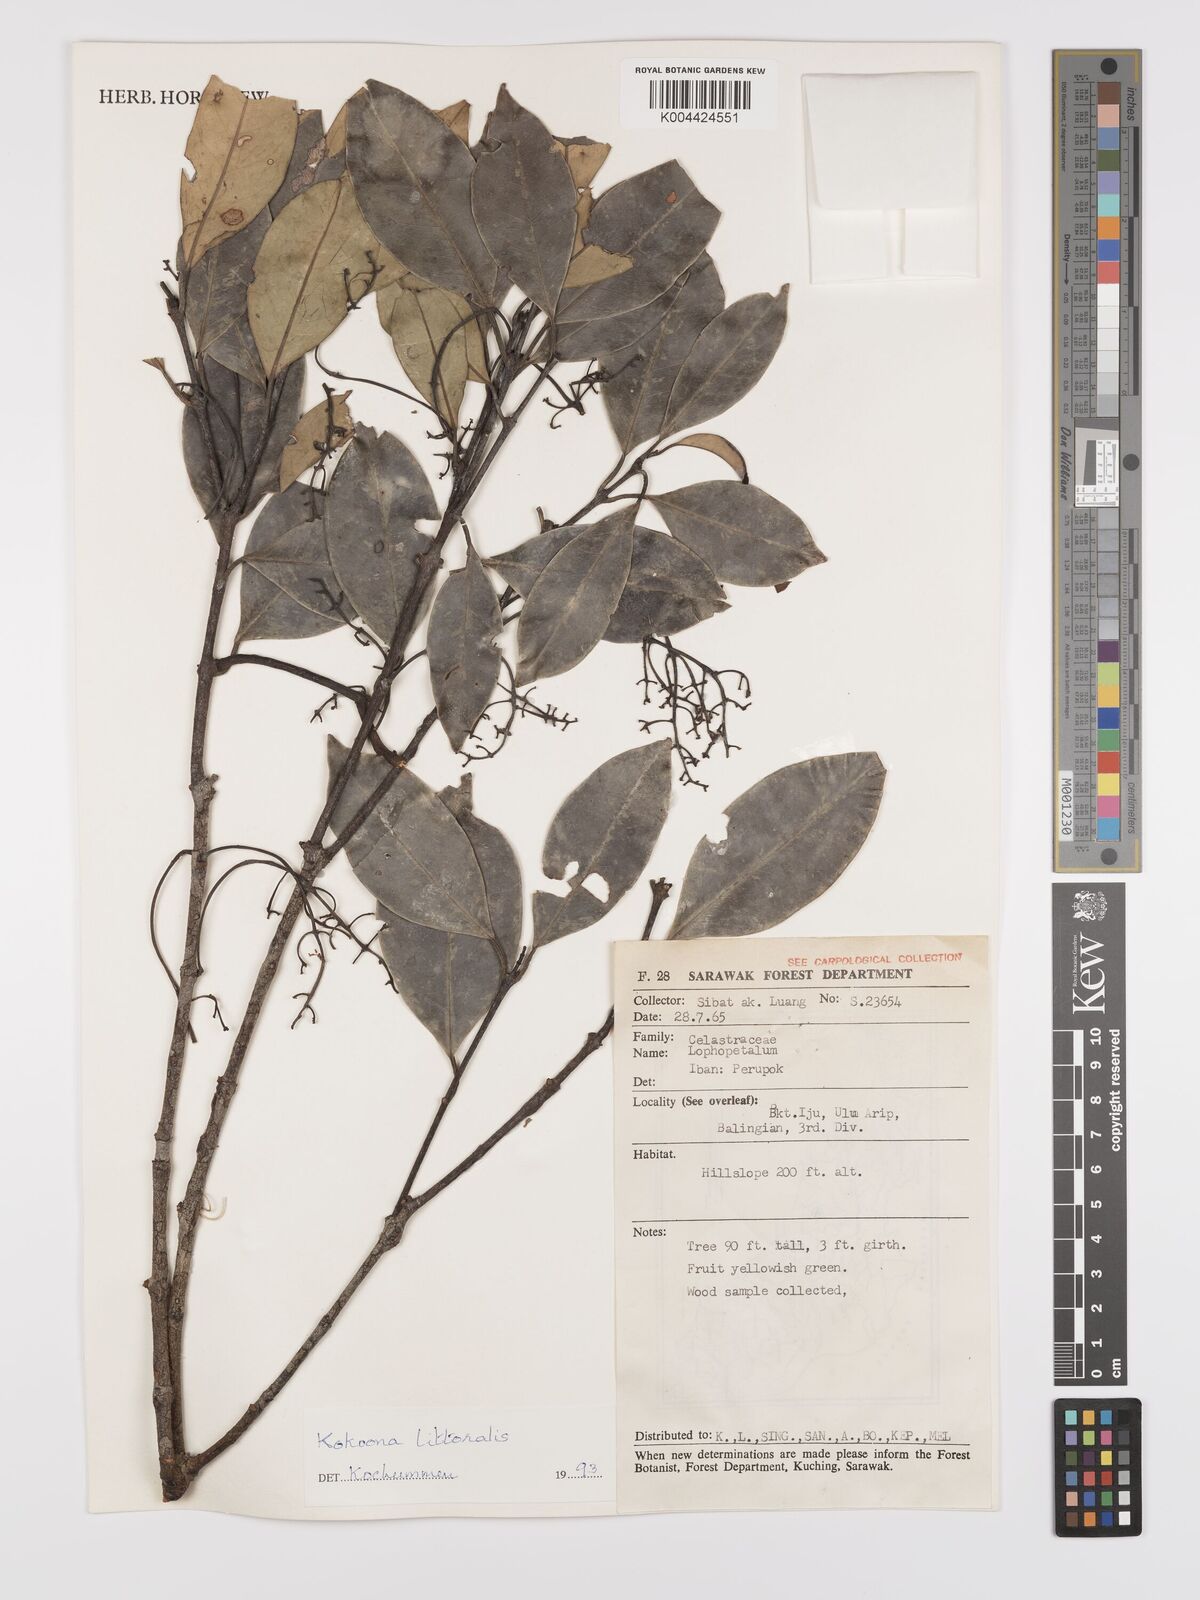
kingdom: Plantae
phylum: Tracheophyta
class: Magnoliopsida
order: Celastrales
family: Celastraceae
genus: Kokoona
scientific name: Kokoona littoralis
